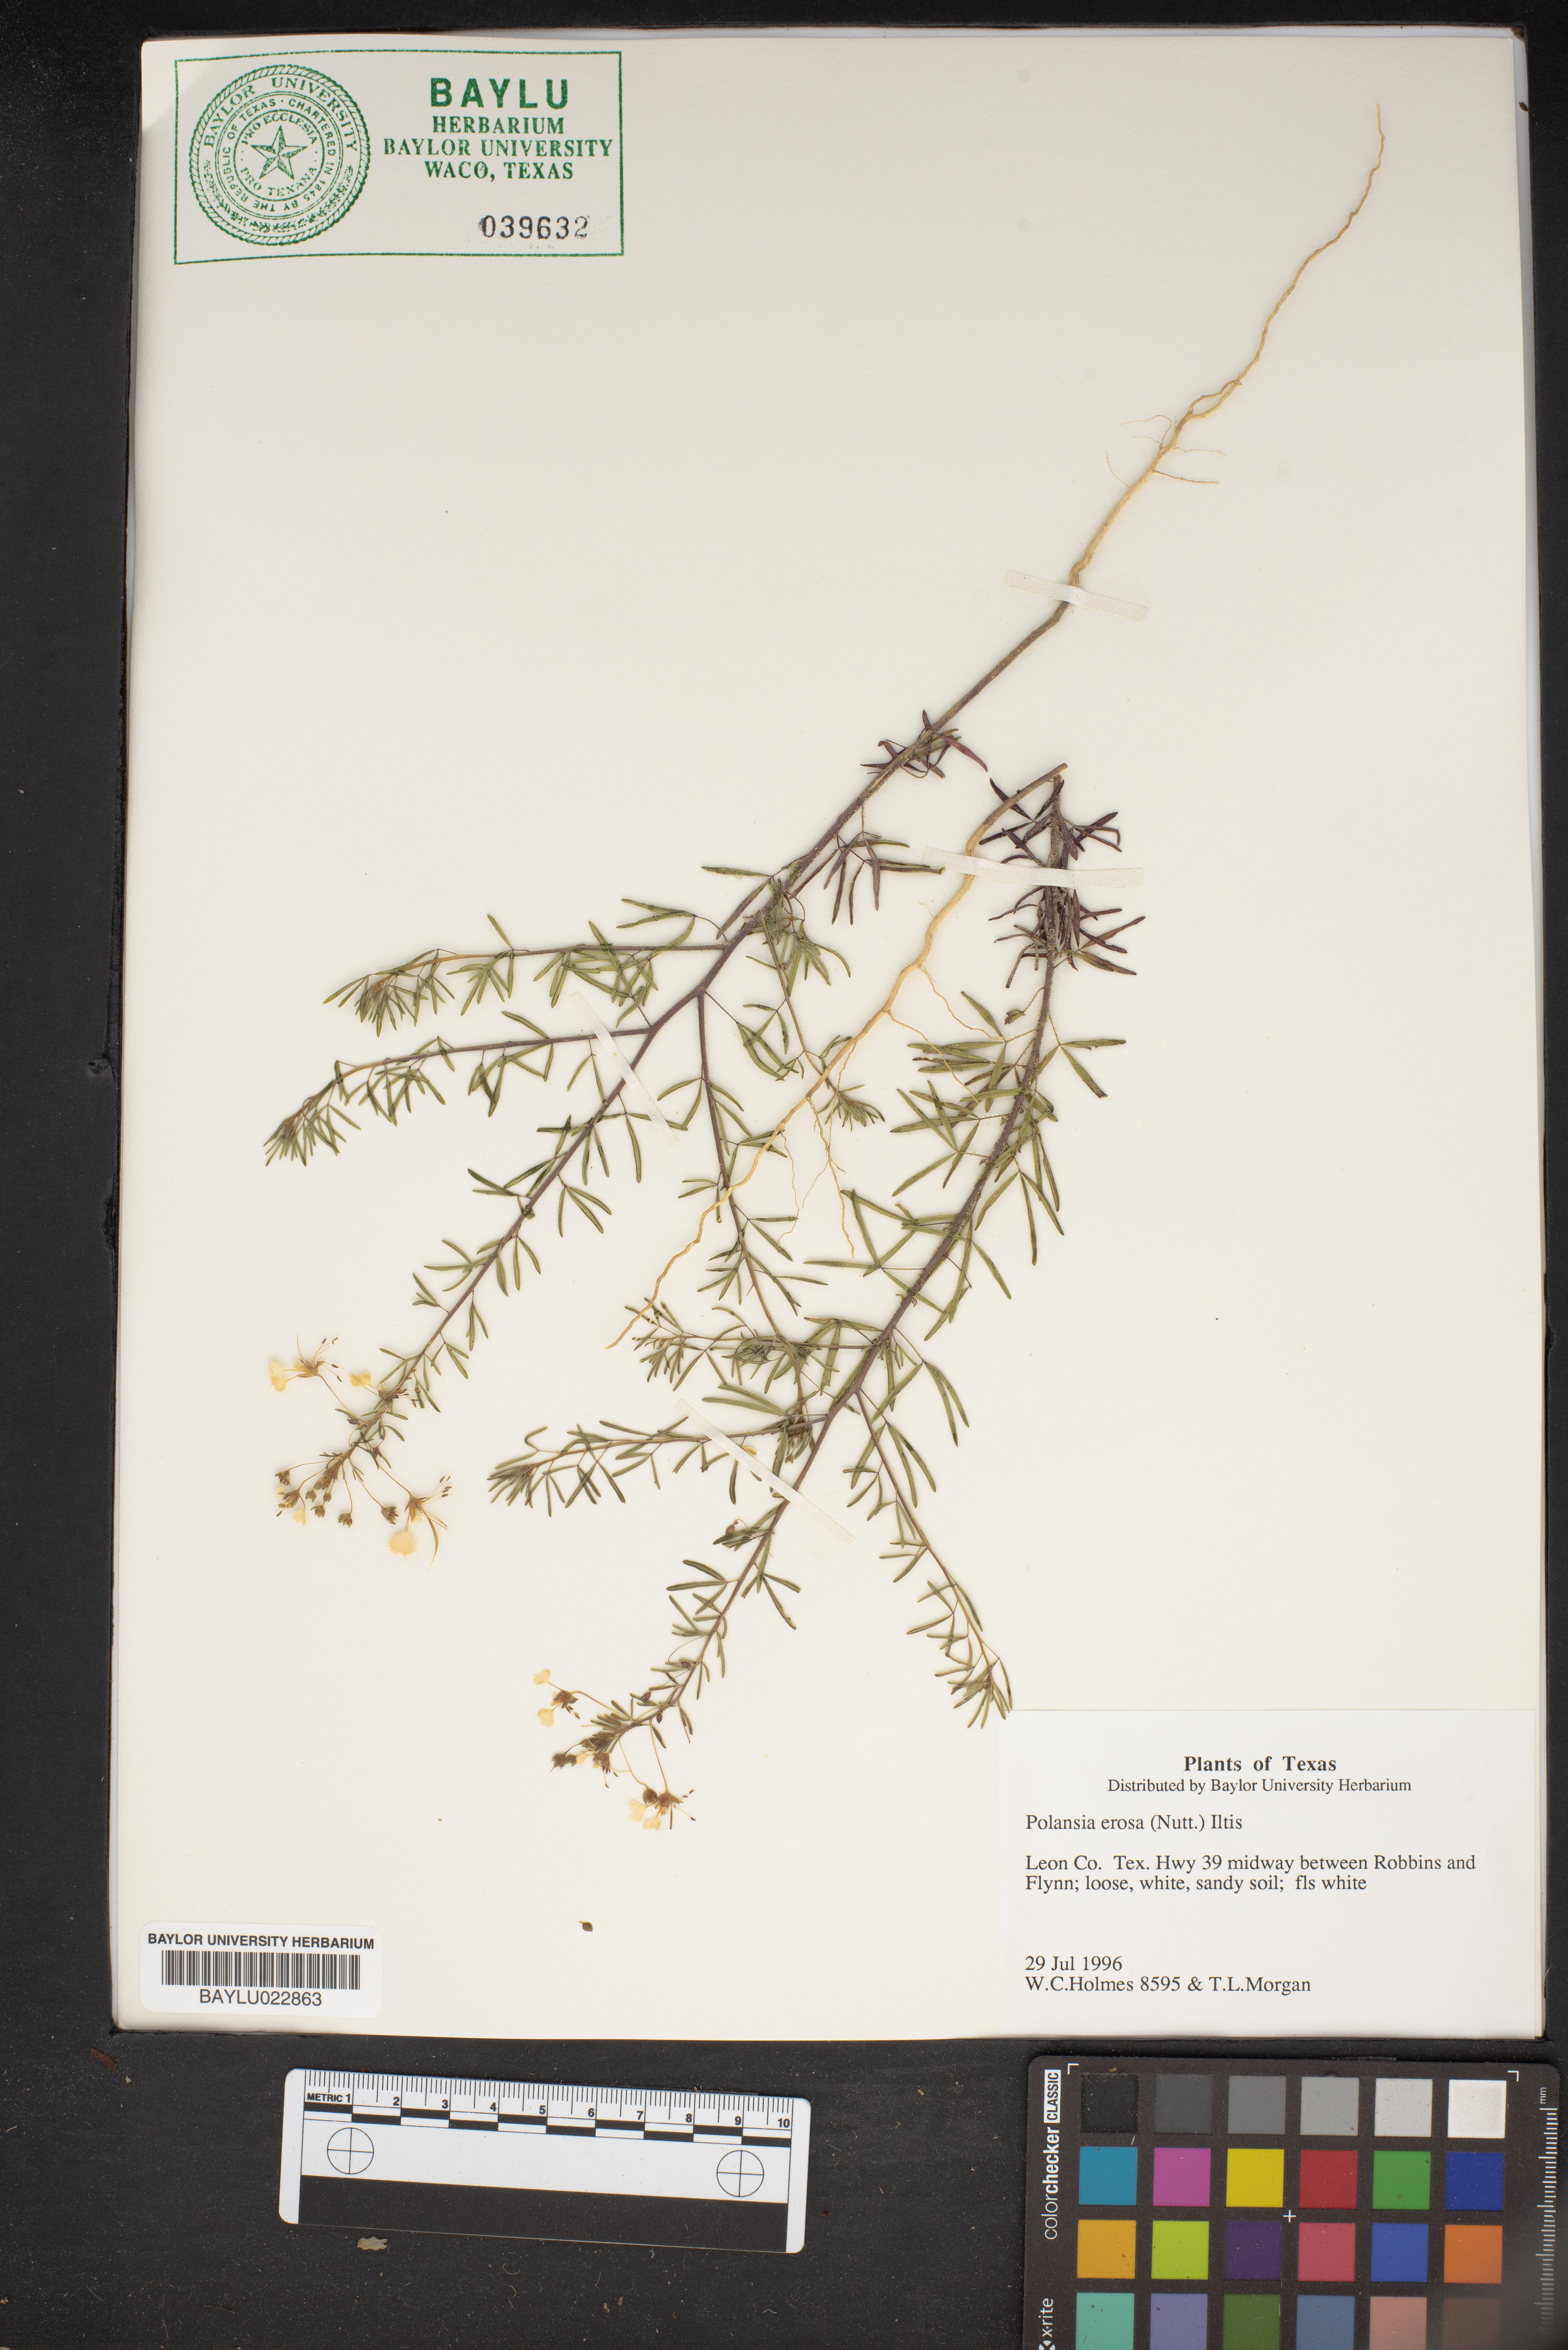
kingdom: Plantae
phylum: Tracheophyta
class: Magnoliopsida
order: Brassicales
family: Cleomaceae
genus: Polanisia
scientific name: Polanisia erosa
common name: Large clammyweed
